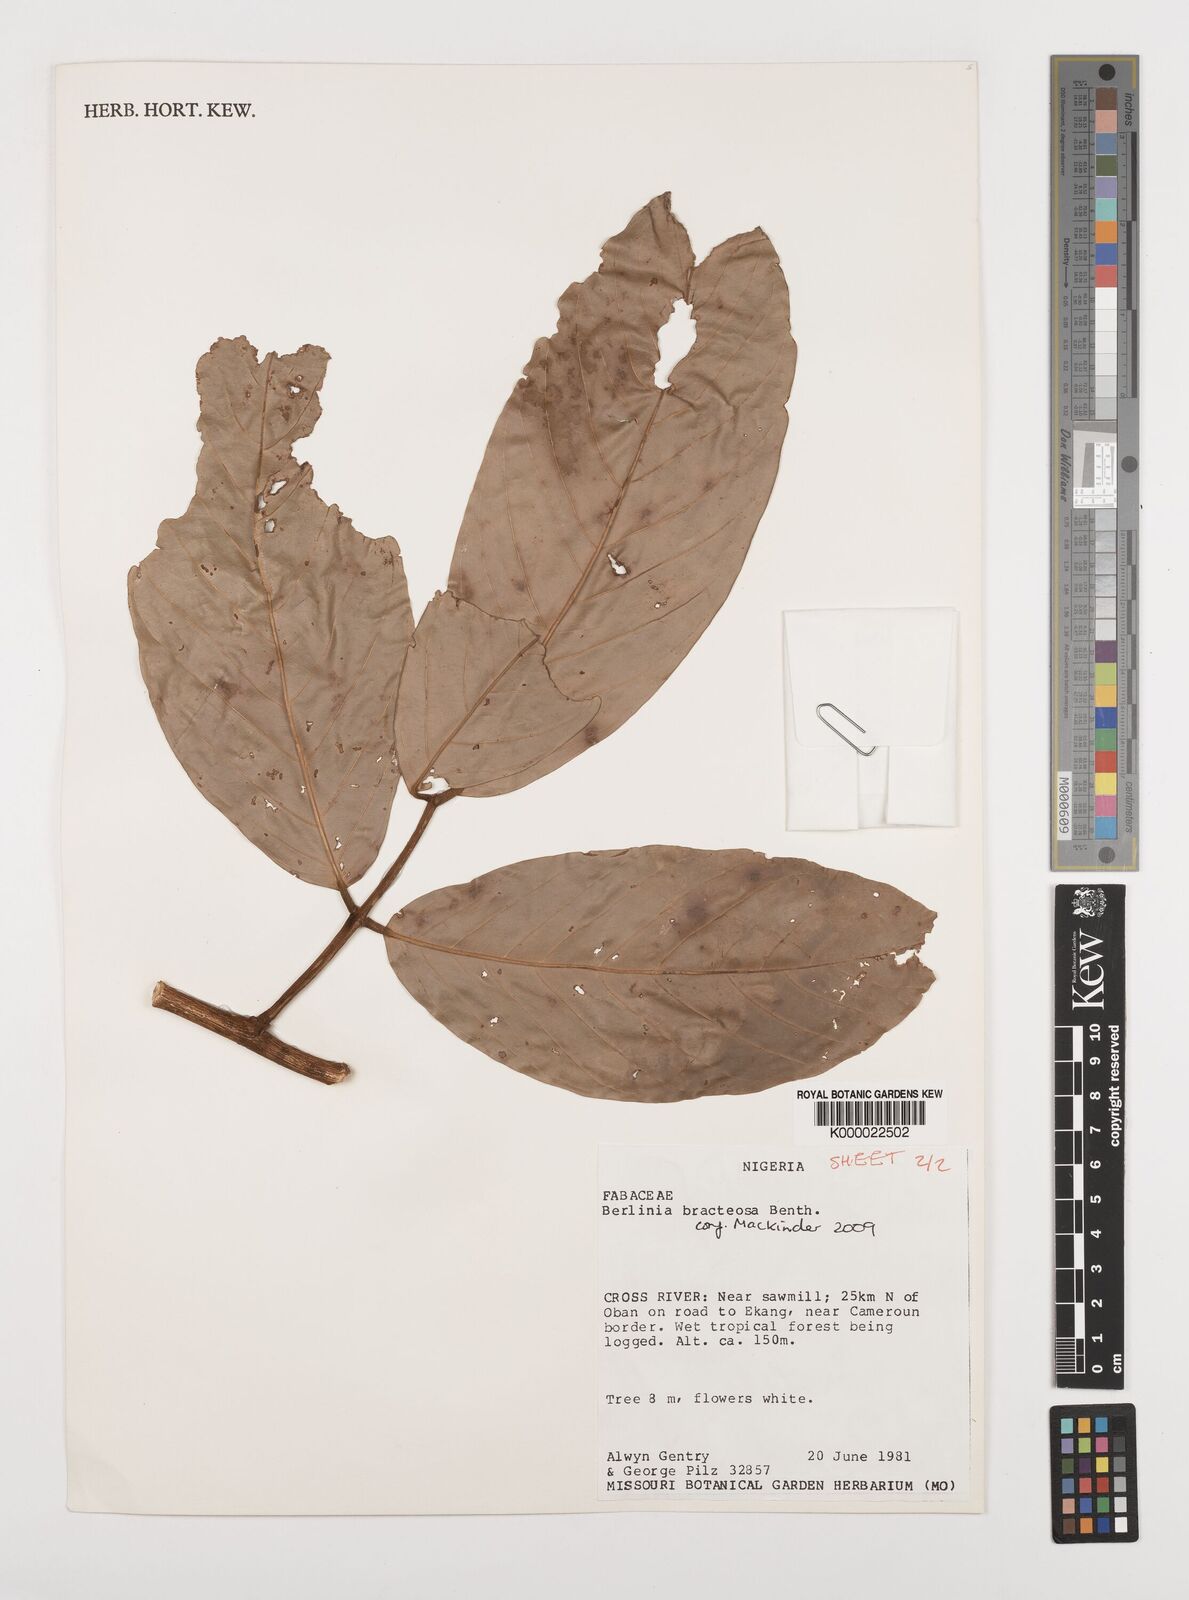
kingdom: Plantae
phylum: Tracheophyta
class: Magnoliopsida
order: Fabales
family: Fabaceae
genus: Berlinia
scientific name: Berlinia bracteosa
